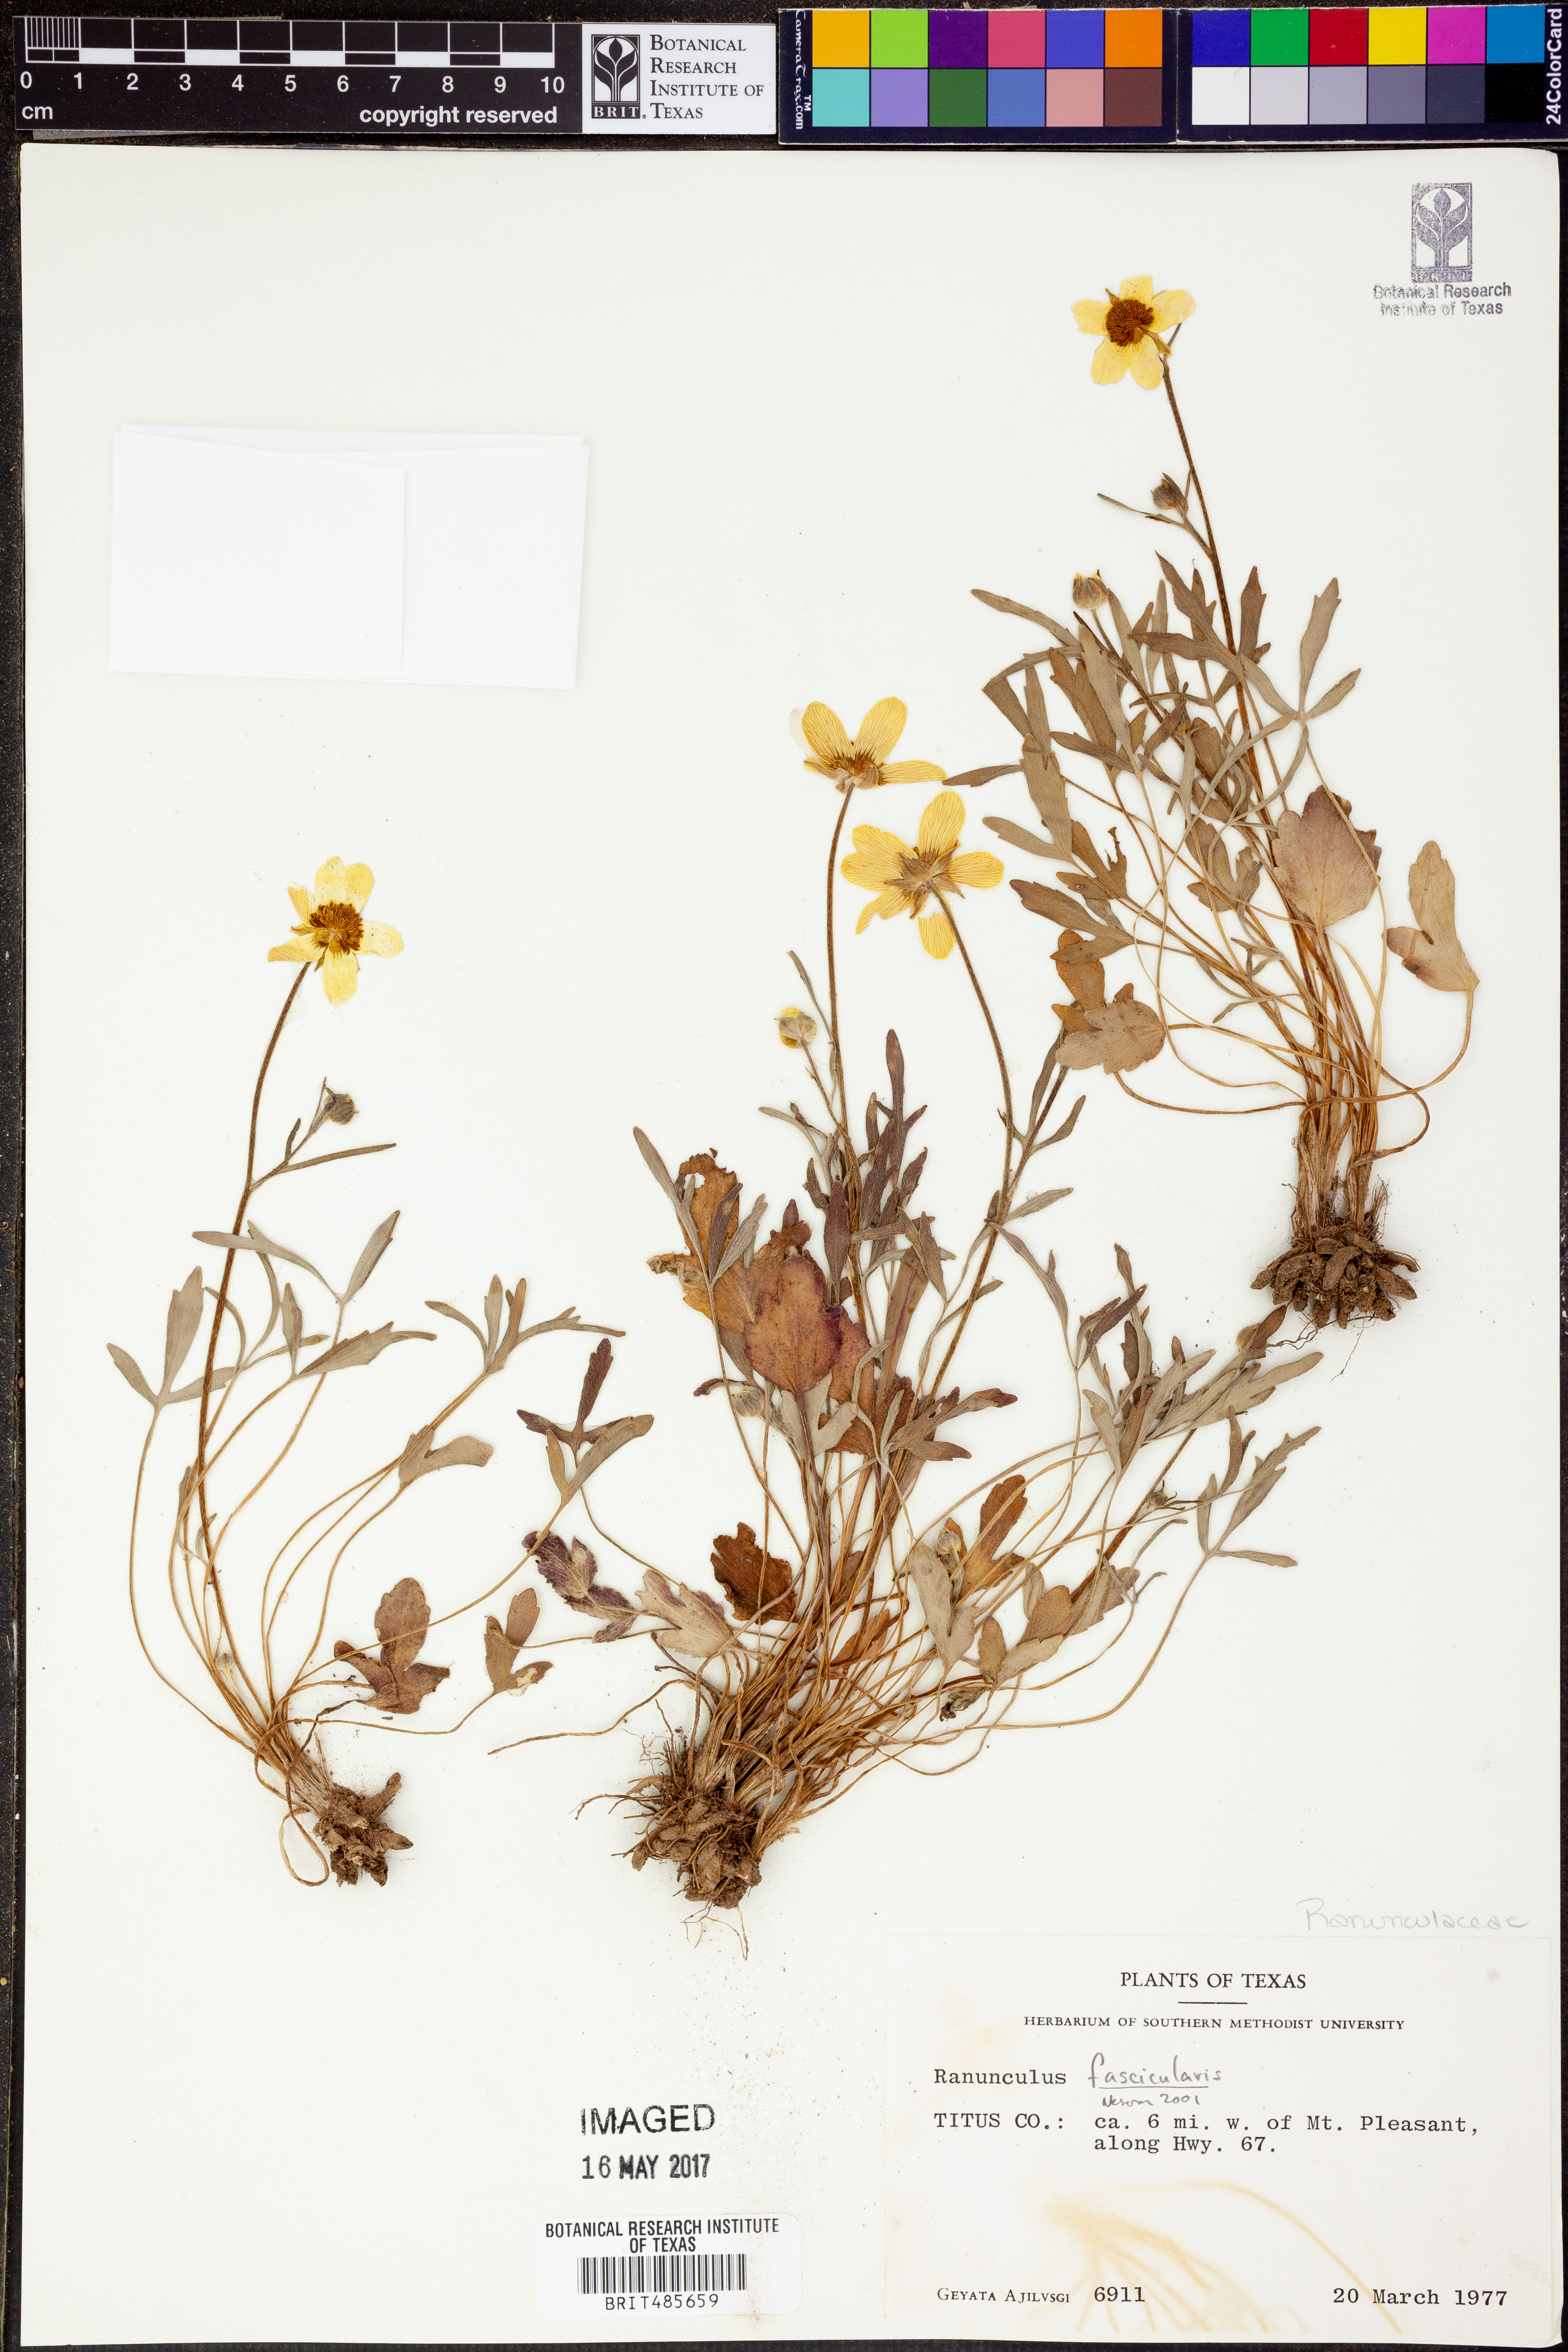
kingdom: Plantae
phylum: Tracheophyta
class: Magnoliopsida
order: Ranunculales
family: Ranunculaceae
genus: Ranunculus
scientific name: Ranunculus fascicularis
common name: Early buttercup
